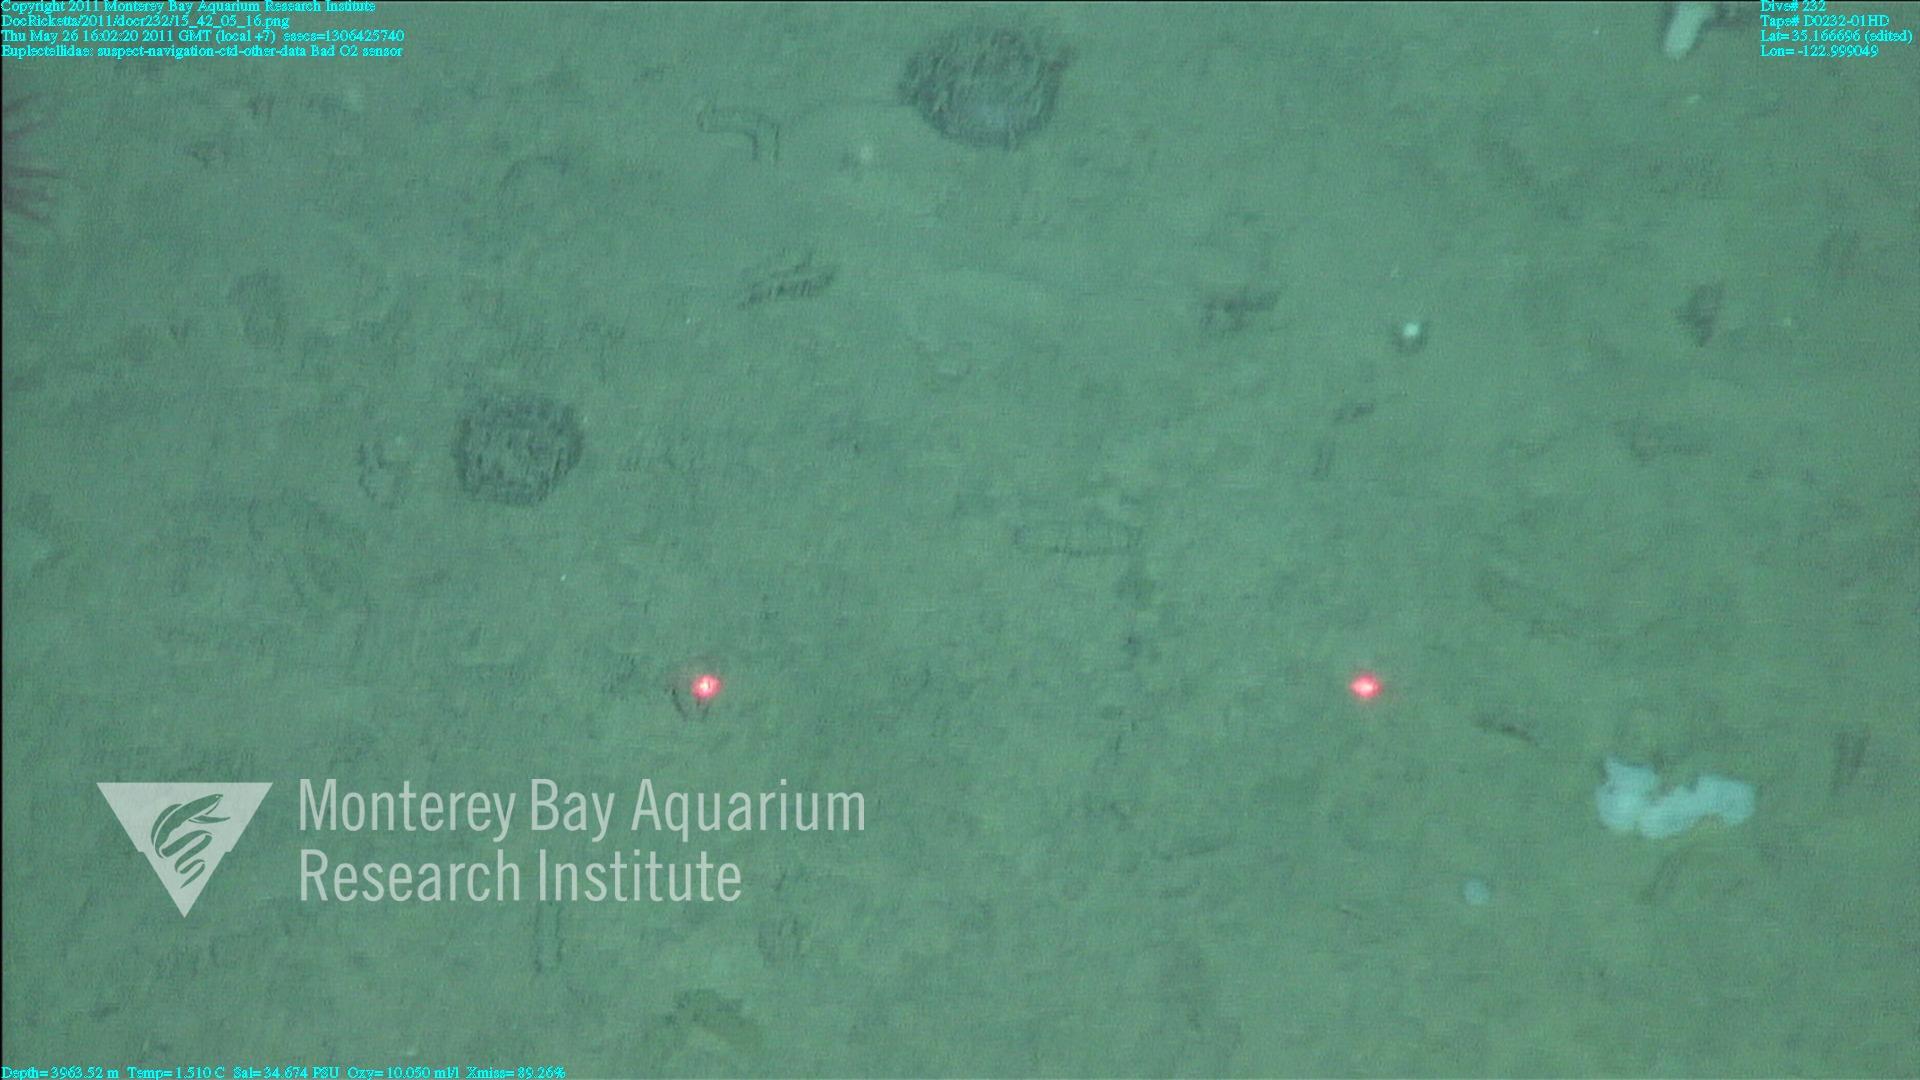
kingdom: Animalia
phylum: Porifera
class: Hexactinellida
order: Lyssacinosida
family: Euplectellidae
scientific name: Euplectellidae
